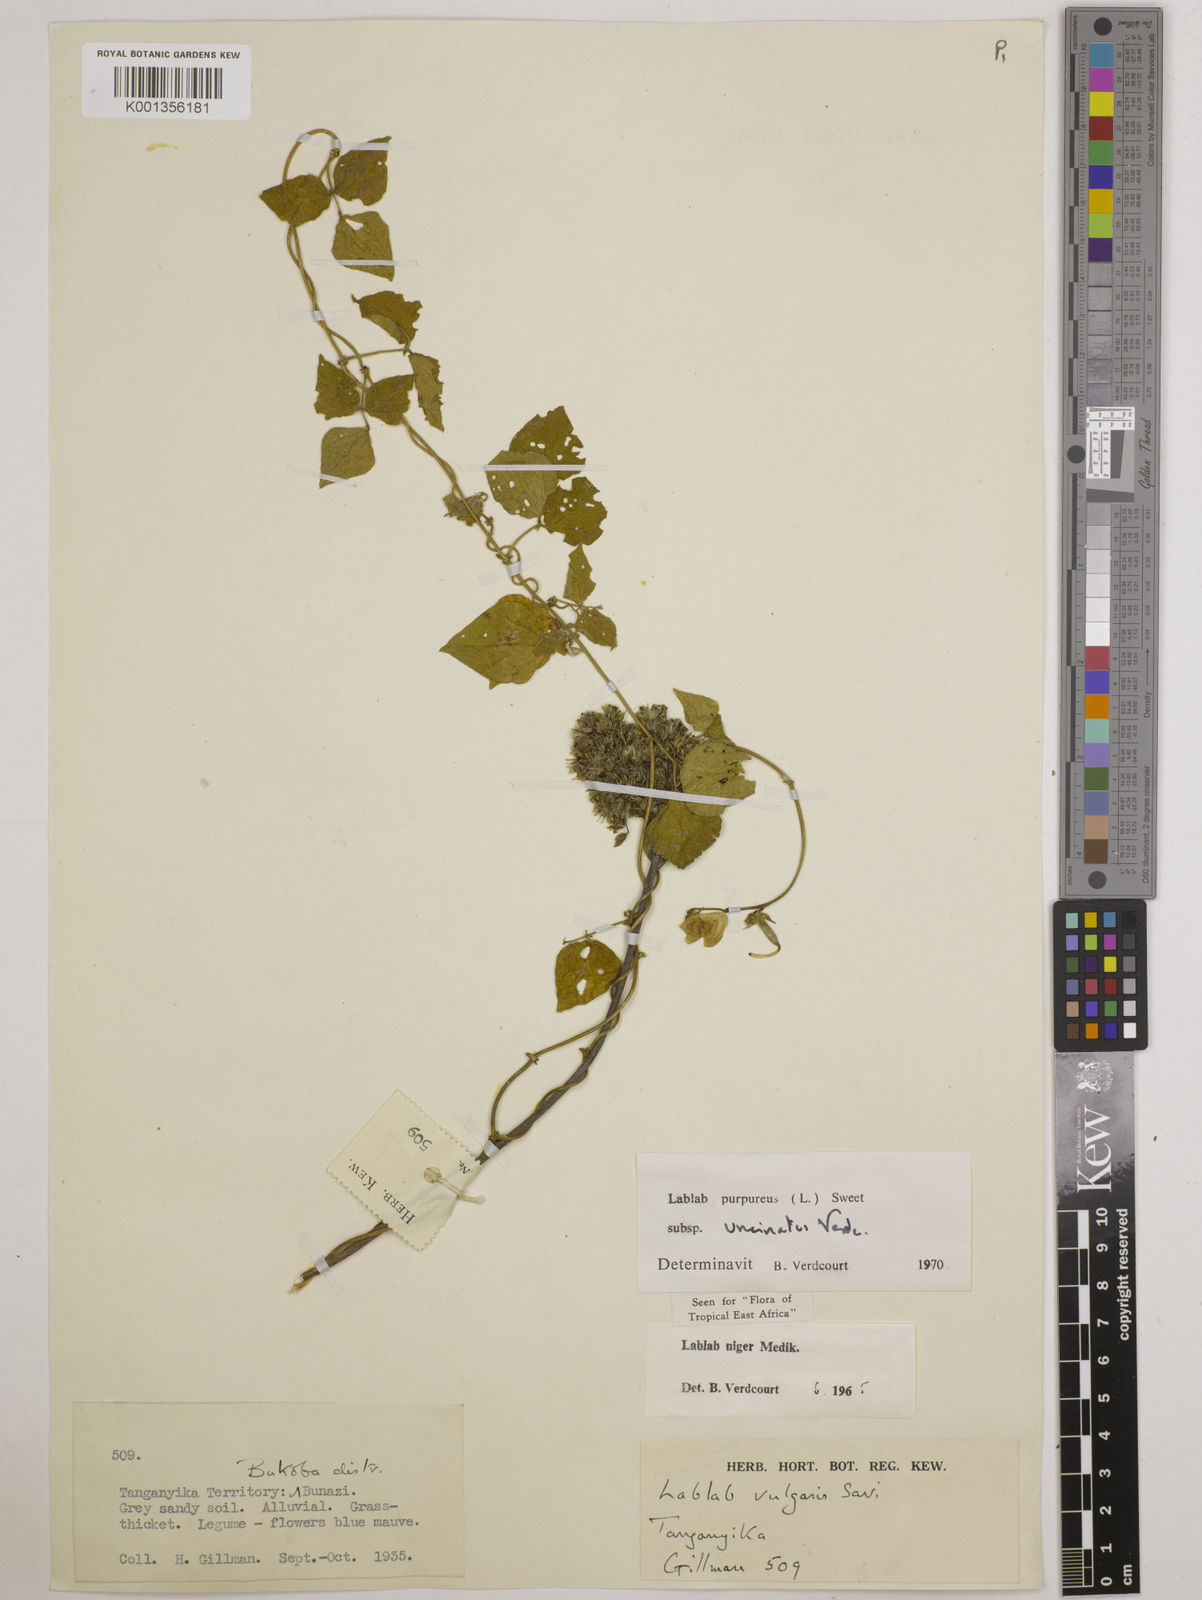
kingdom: Plantae
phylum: Tracheophyta
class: Magnoliopsida
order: Fabales
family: Fabaceae
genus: Lablab
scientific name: Lablab purpureus
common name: Lablab-bean
